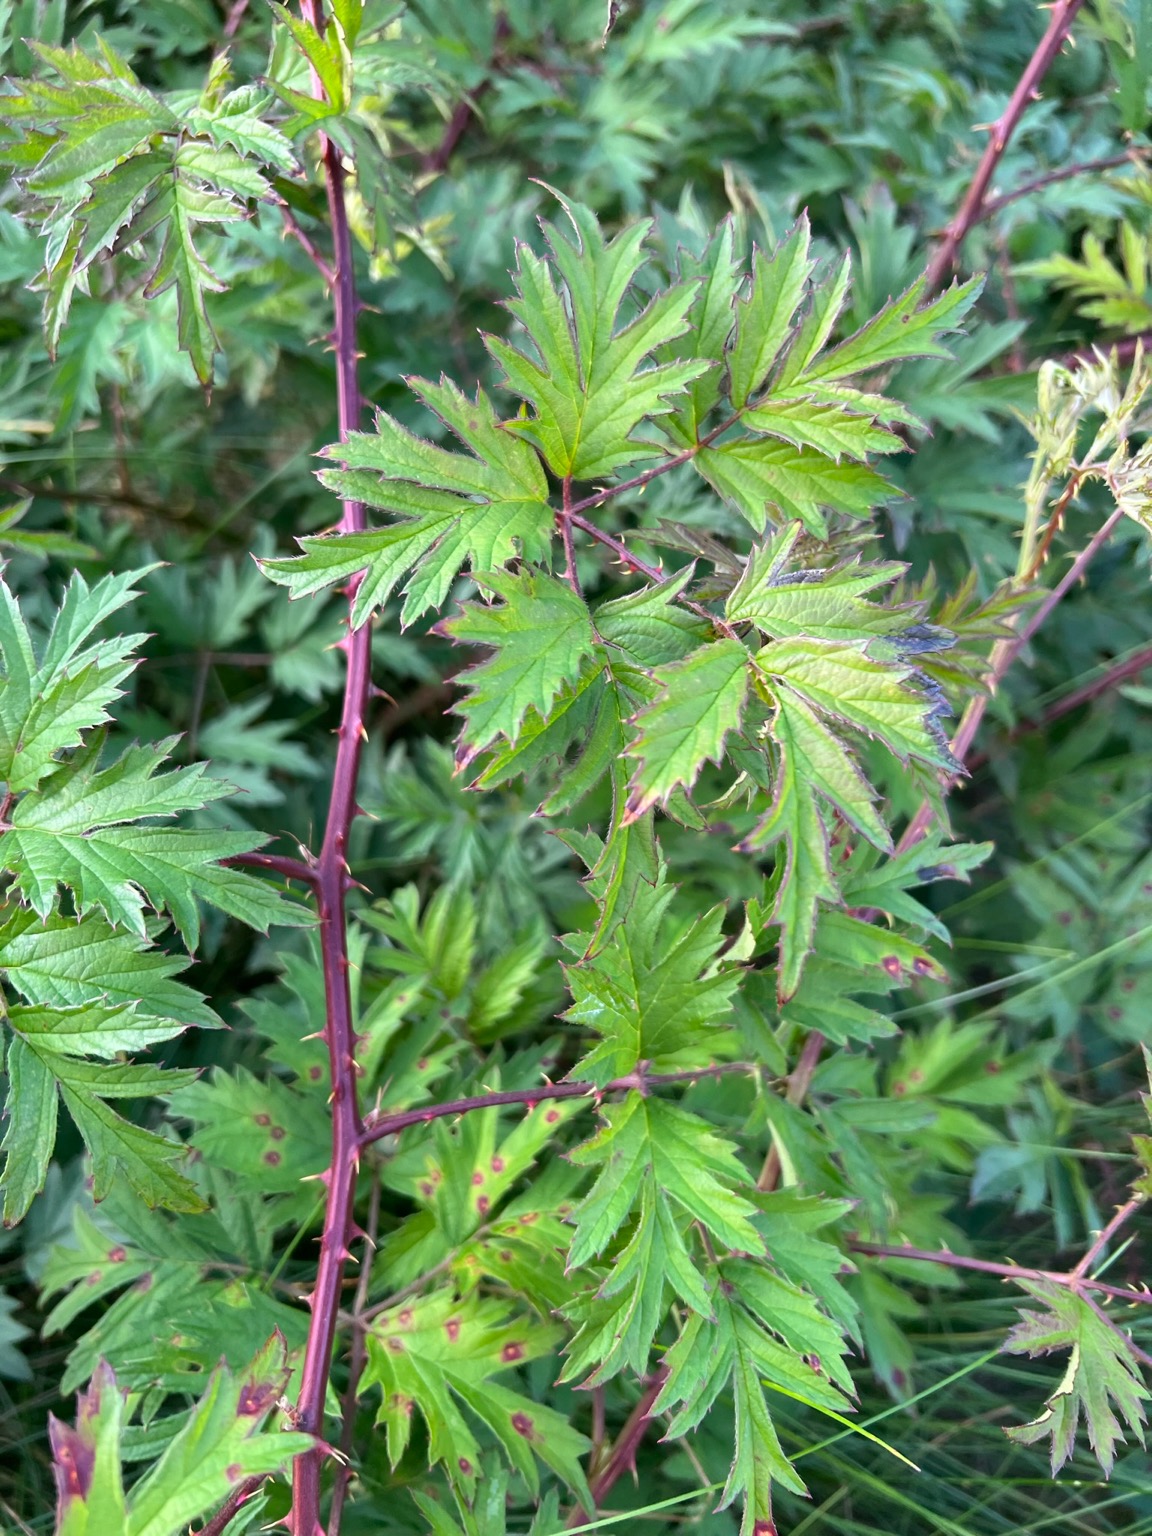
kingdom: Plantae
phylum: Tracheophyta
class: Magnoliopsida
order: Rosales
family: Rosaceae
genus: Rubus
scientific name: Rubus laciniatus
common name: Fliget brombær
